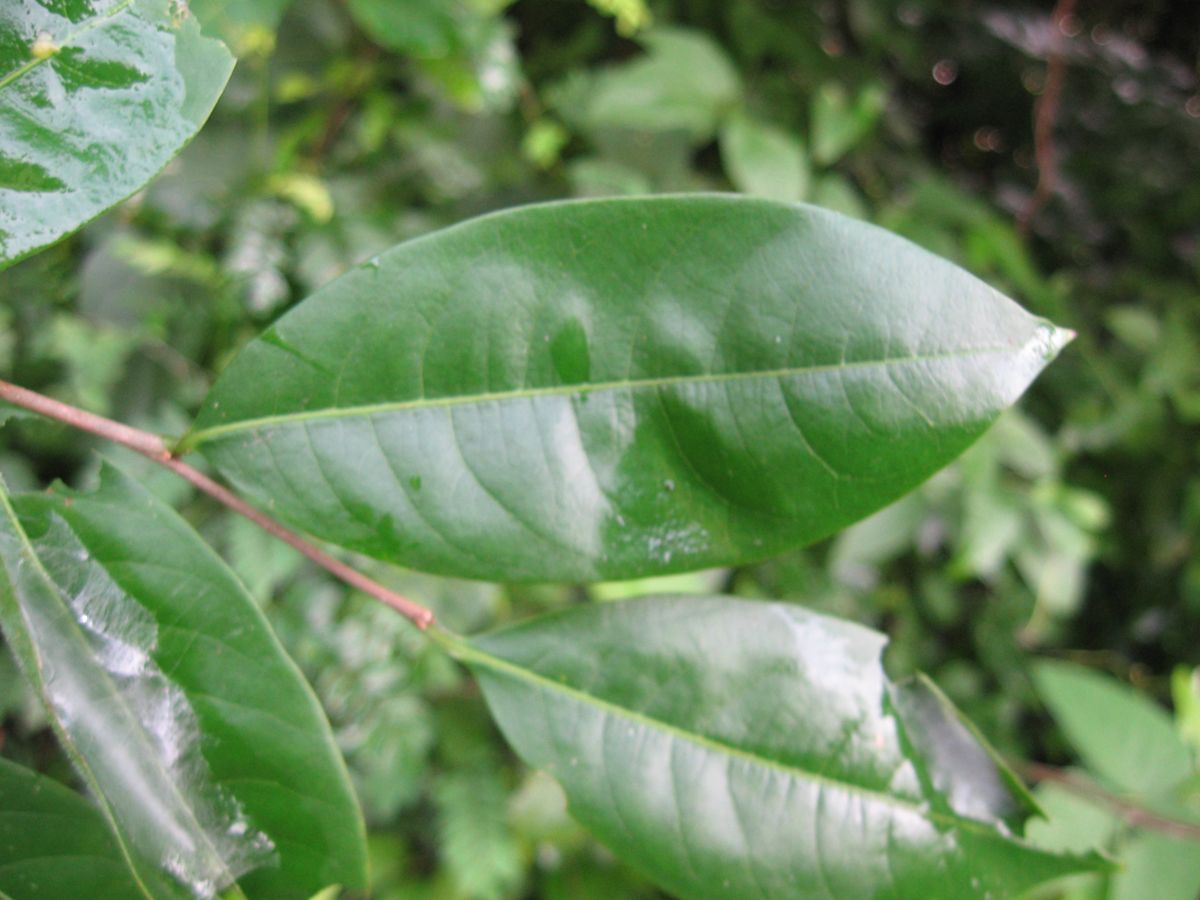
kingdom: Plantae
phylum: Tracheophyta
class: Magnoliopsida
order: Malpighiales
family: Phyllanthaceae
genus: Margaritaria
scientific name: Margaritaria nobilis
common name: Goose berry
